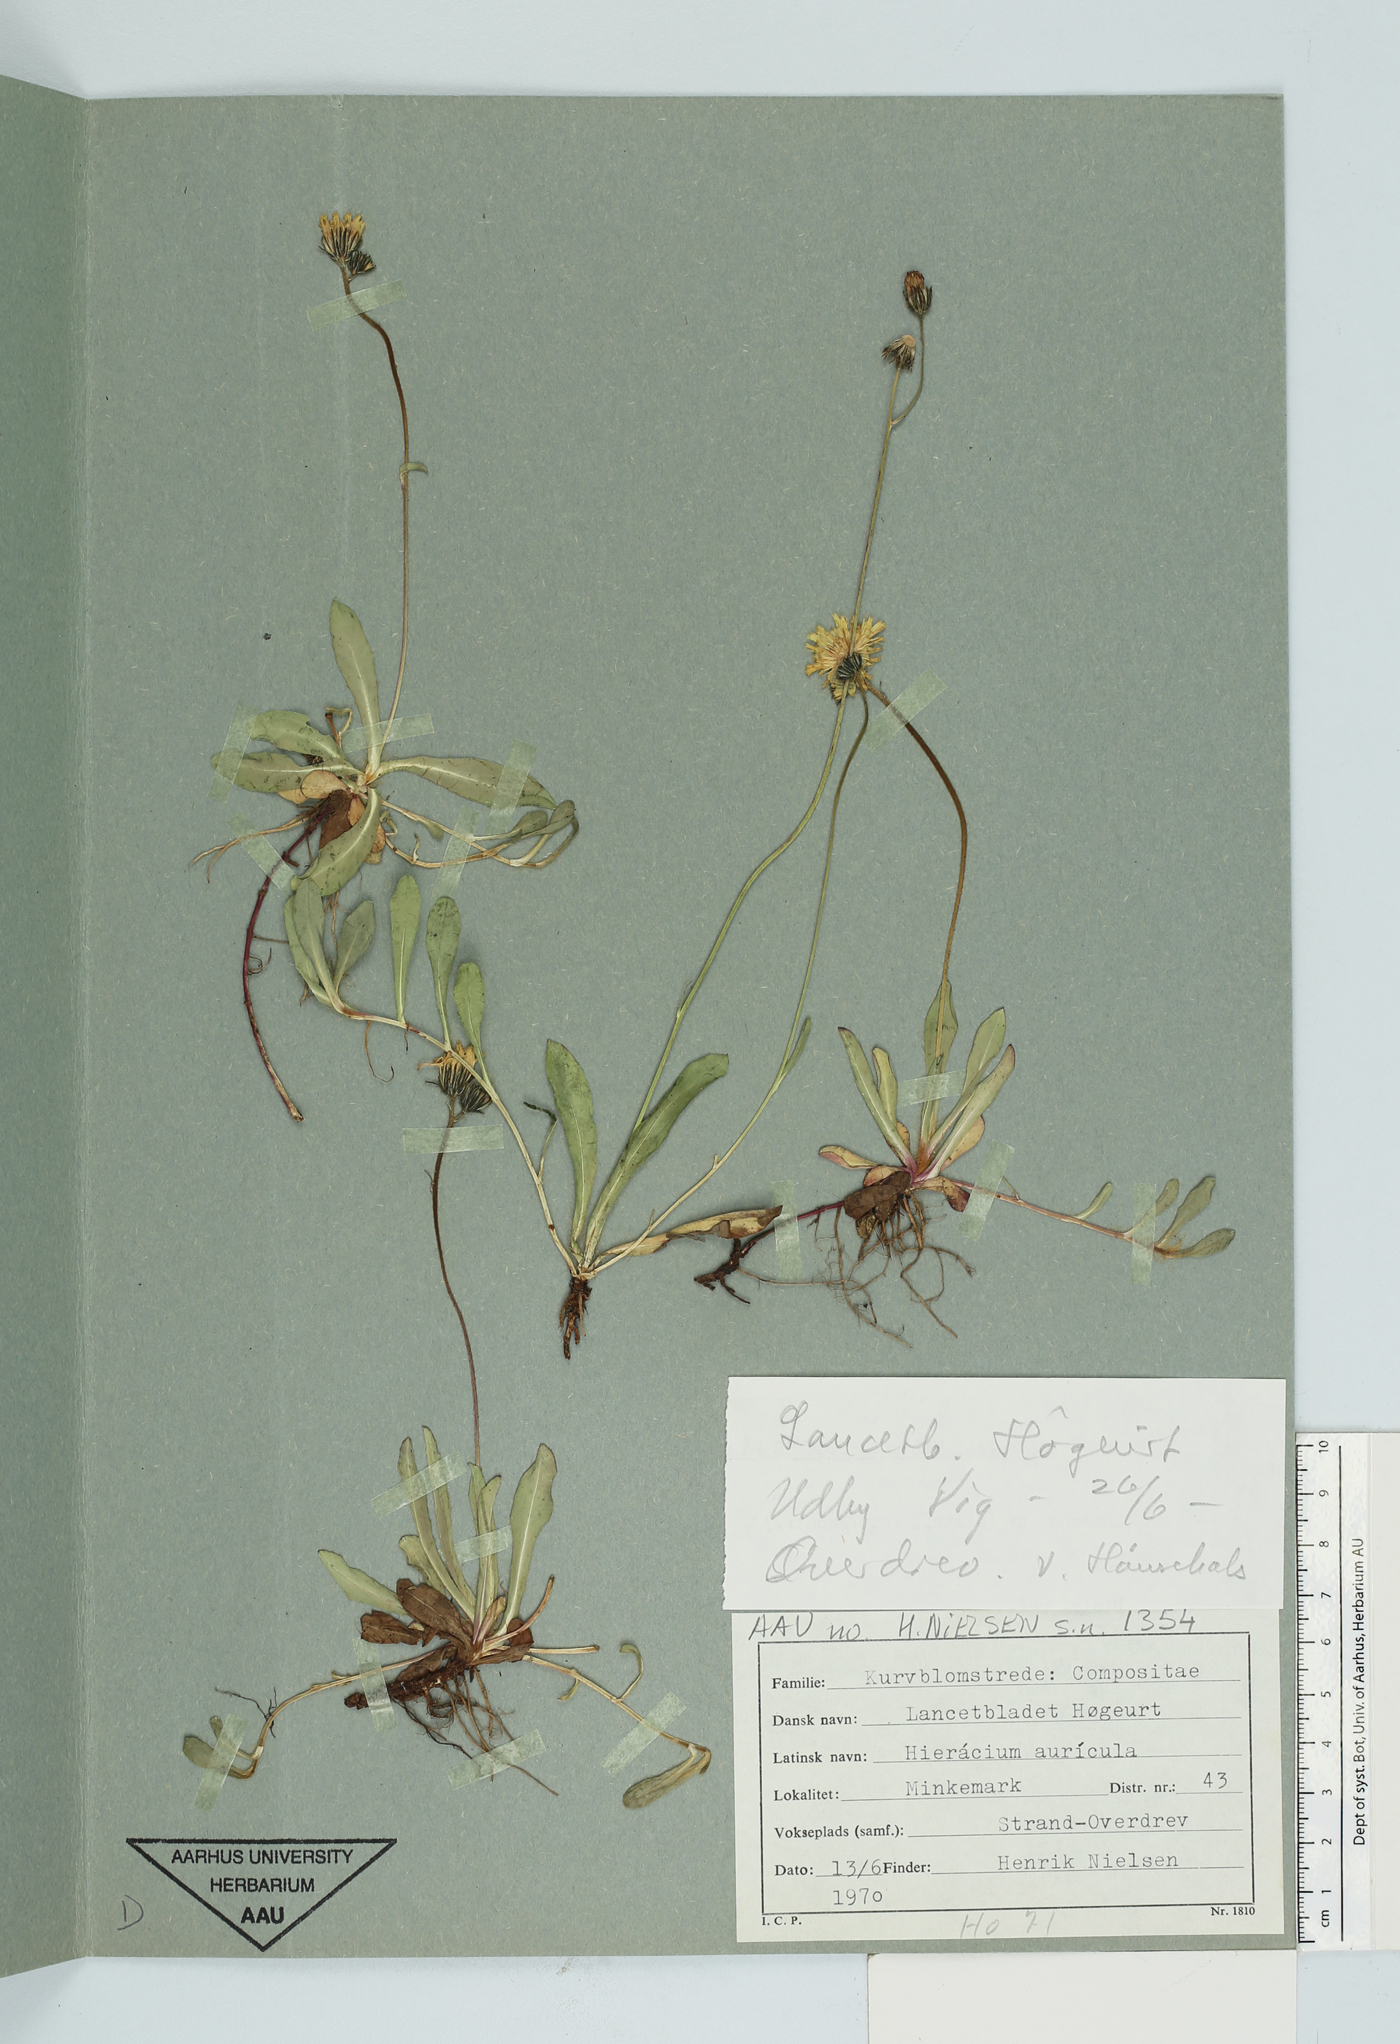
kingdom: Plantae
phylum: Tracheophyta
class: Magnoliopsida
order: Asterales
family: Asteraceae
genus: Pilosella
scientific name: Pilosella lactucella
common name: Glaucous fox-and-cubs
